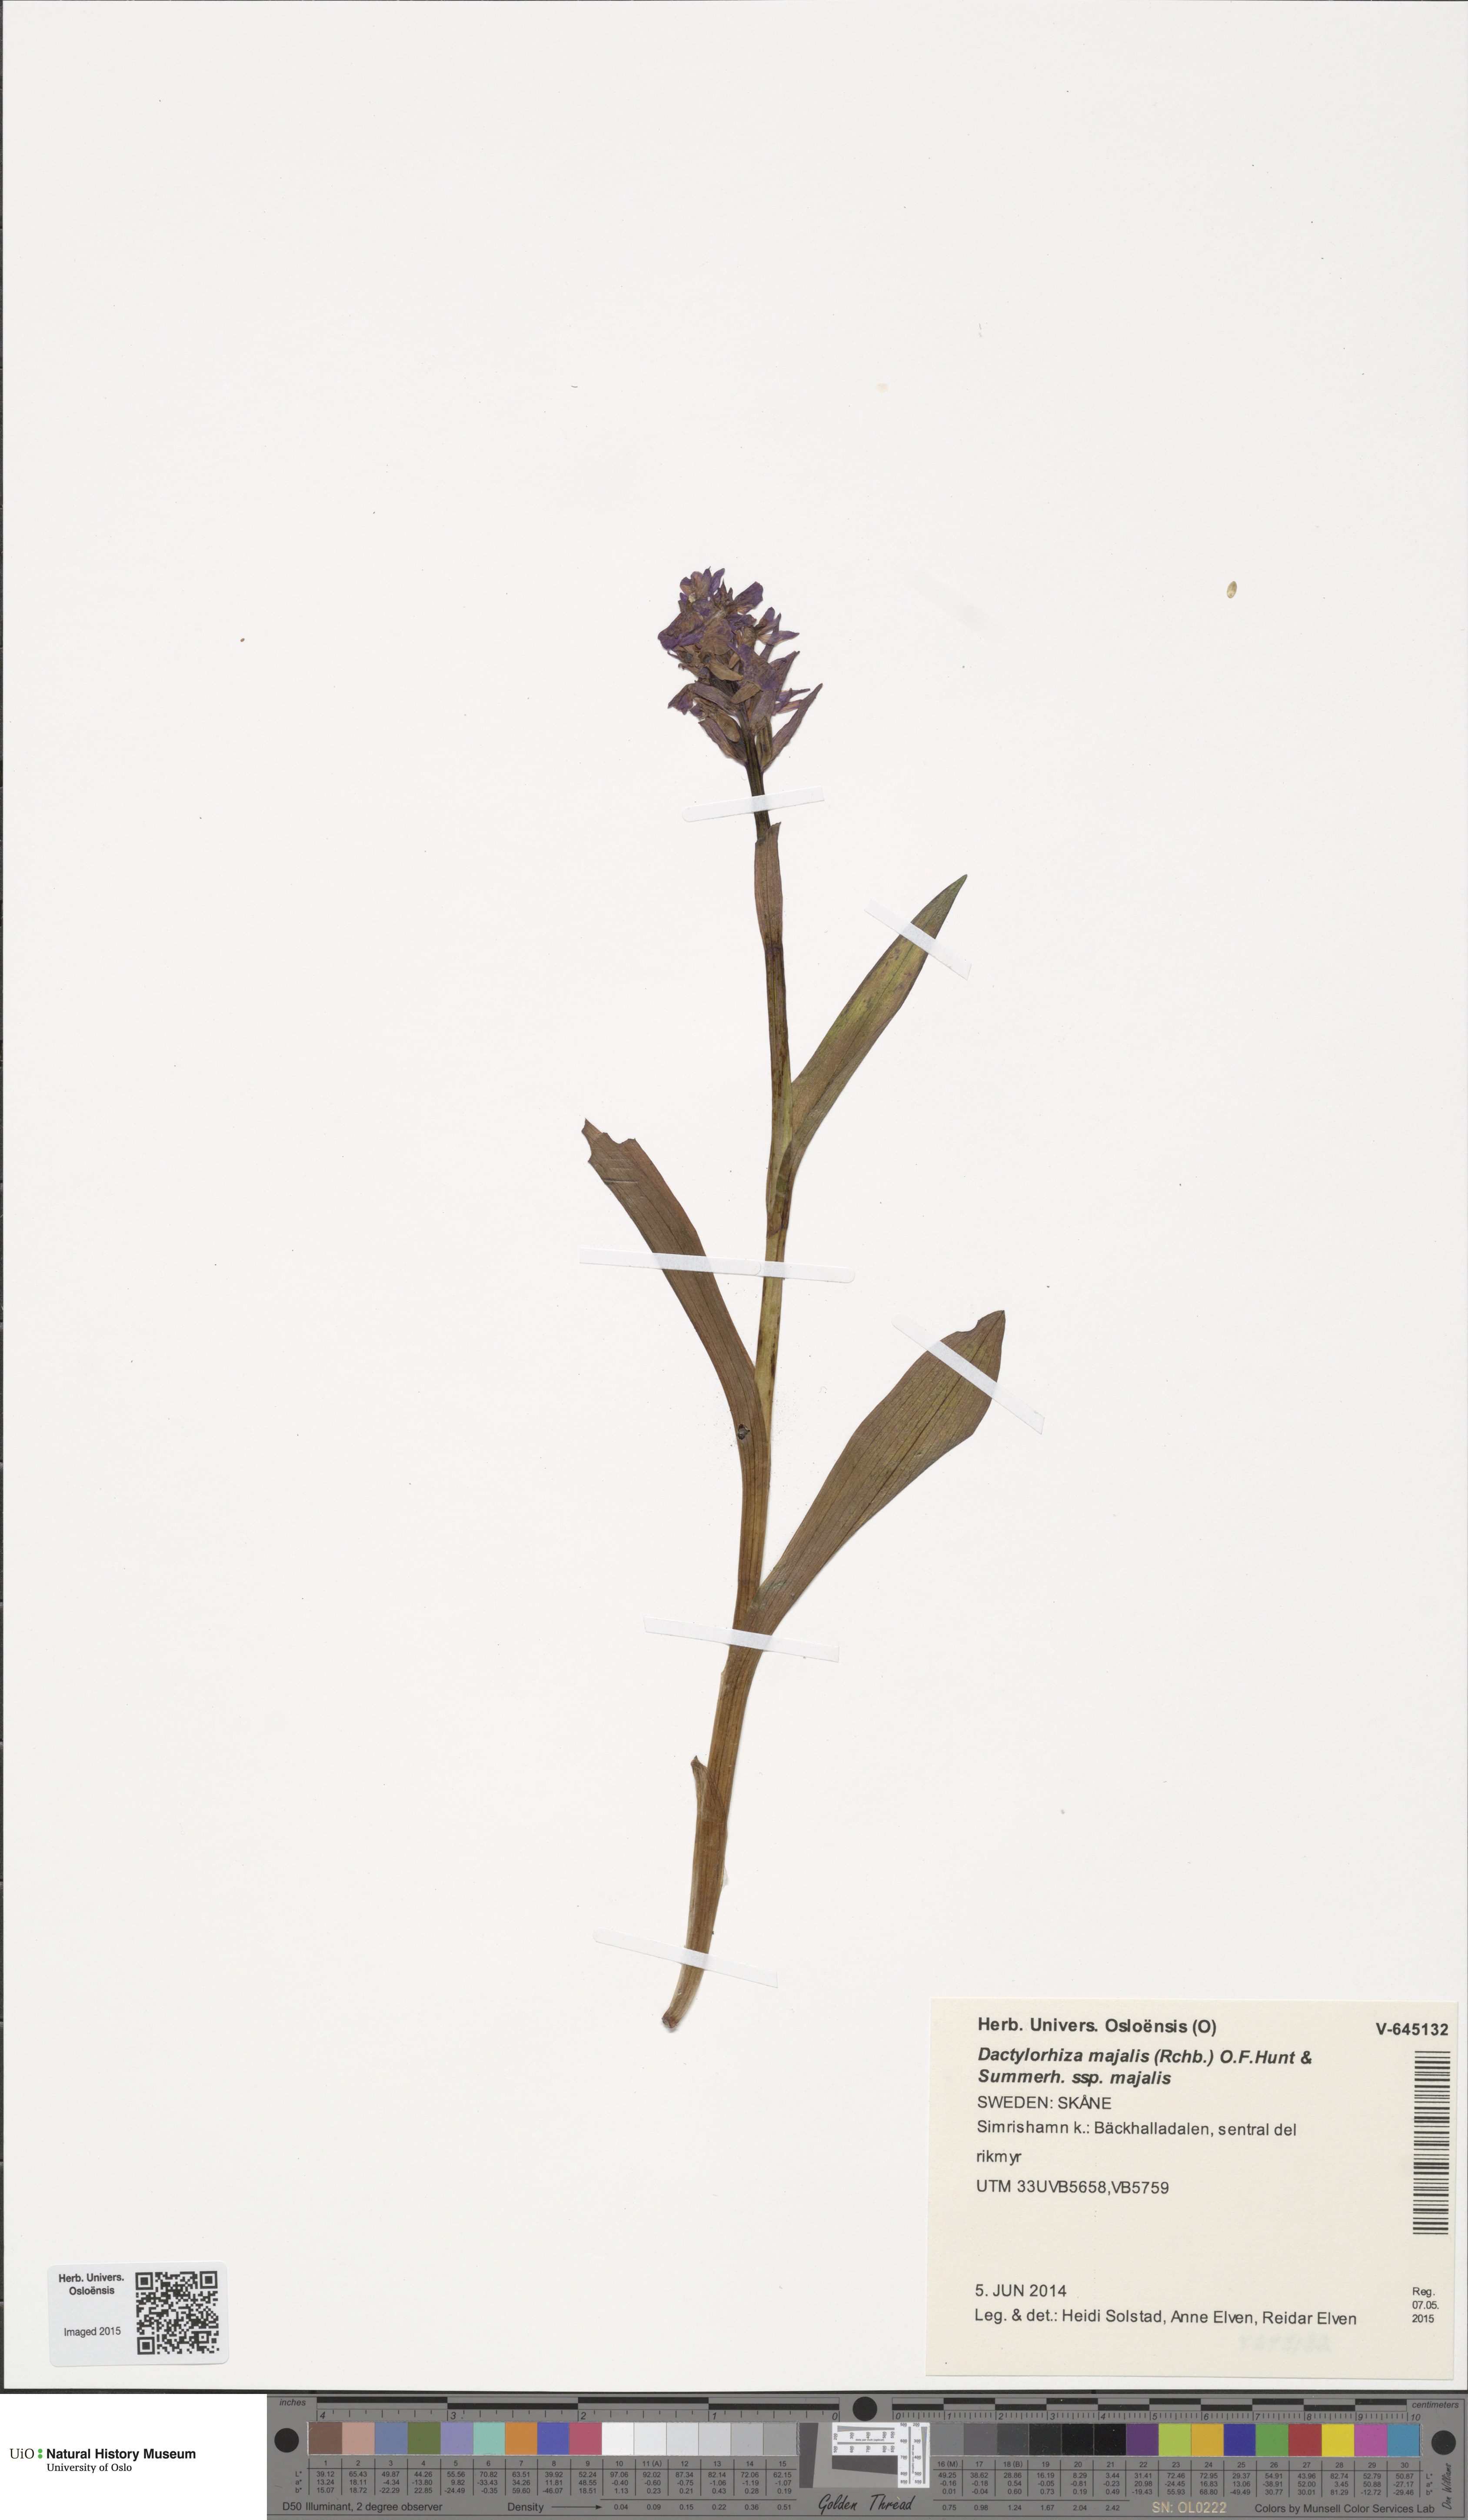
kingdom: Plantae
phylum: Tracheophyta
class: Liliopsida
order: Asparagales
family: Orchidaceae
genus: Dactylorhiza
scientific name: Dactylorhiza majalis
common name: Marsh orchid
